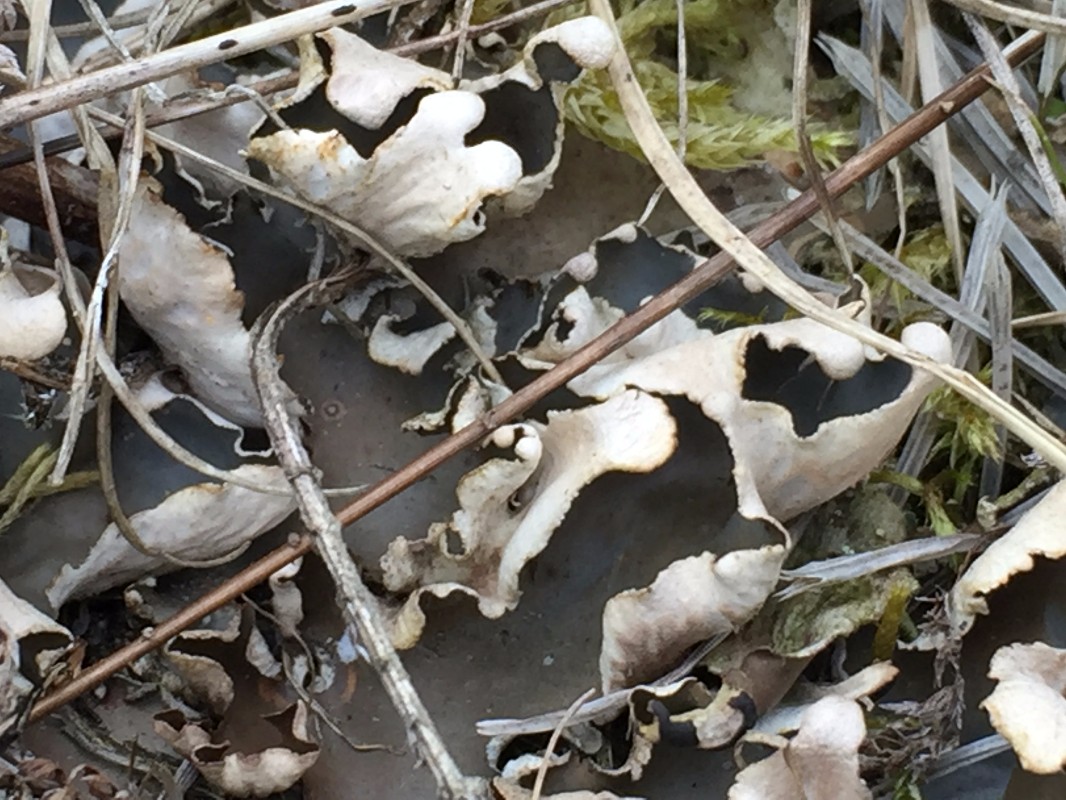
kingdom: Fungi
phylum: Ascomycota
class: Lecanoromycetes
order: Peltigerales
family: Peltigeraceae
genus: Peltigera
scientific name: Peltigera
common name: skjoldlav
